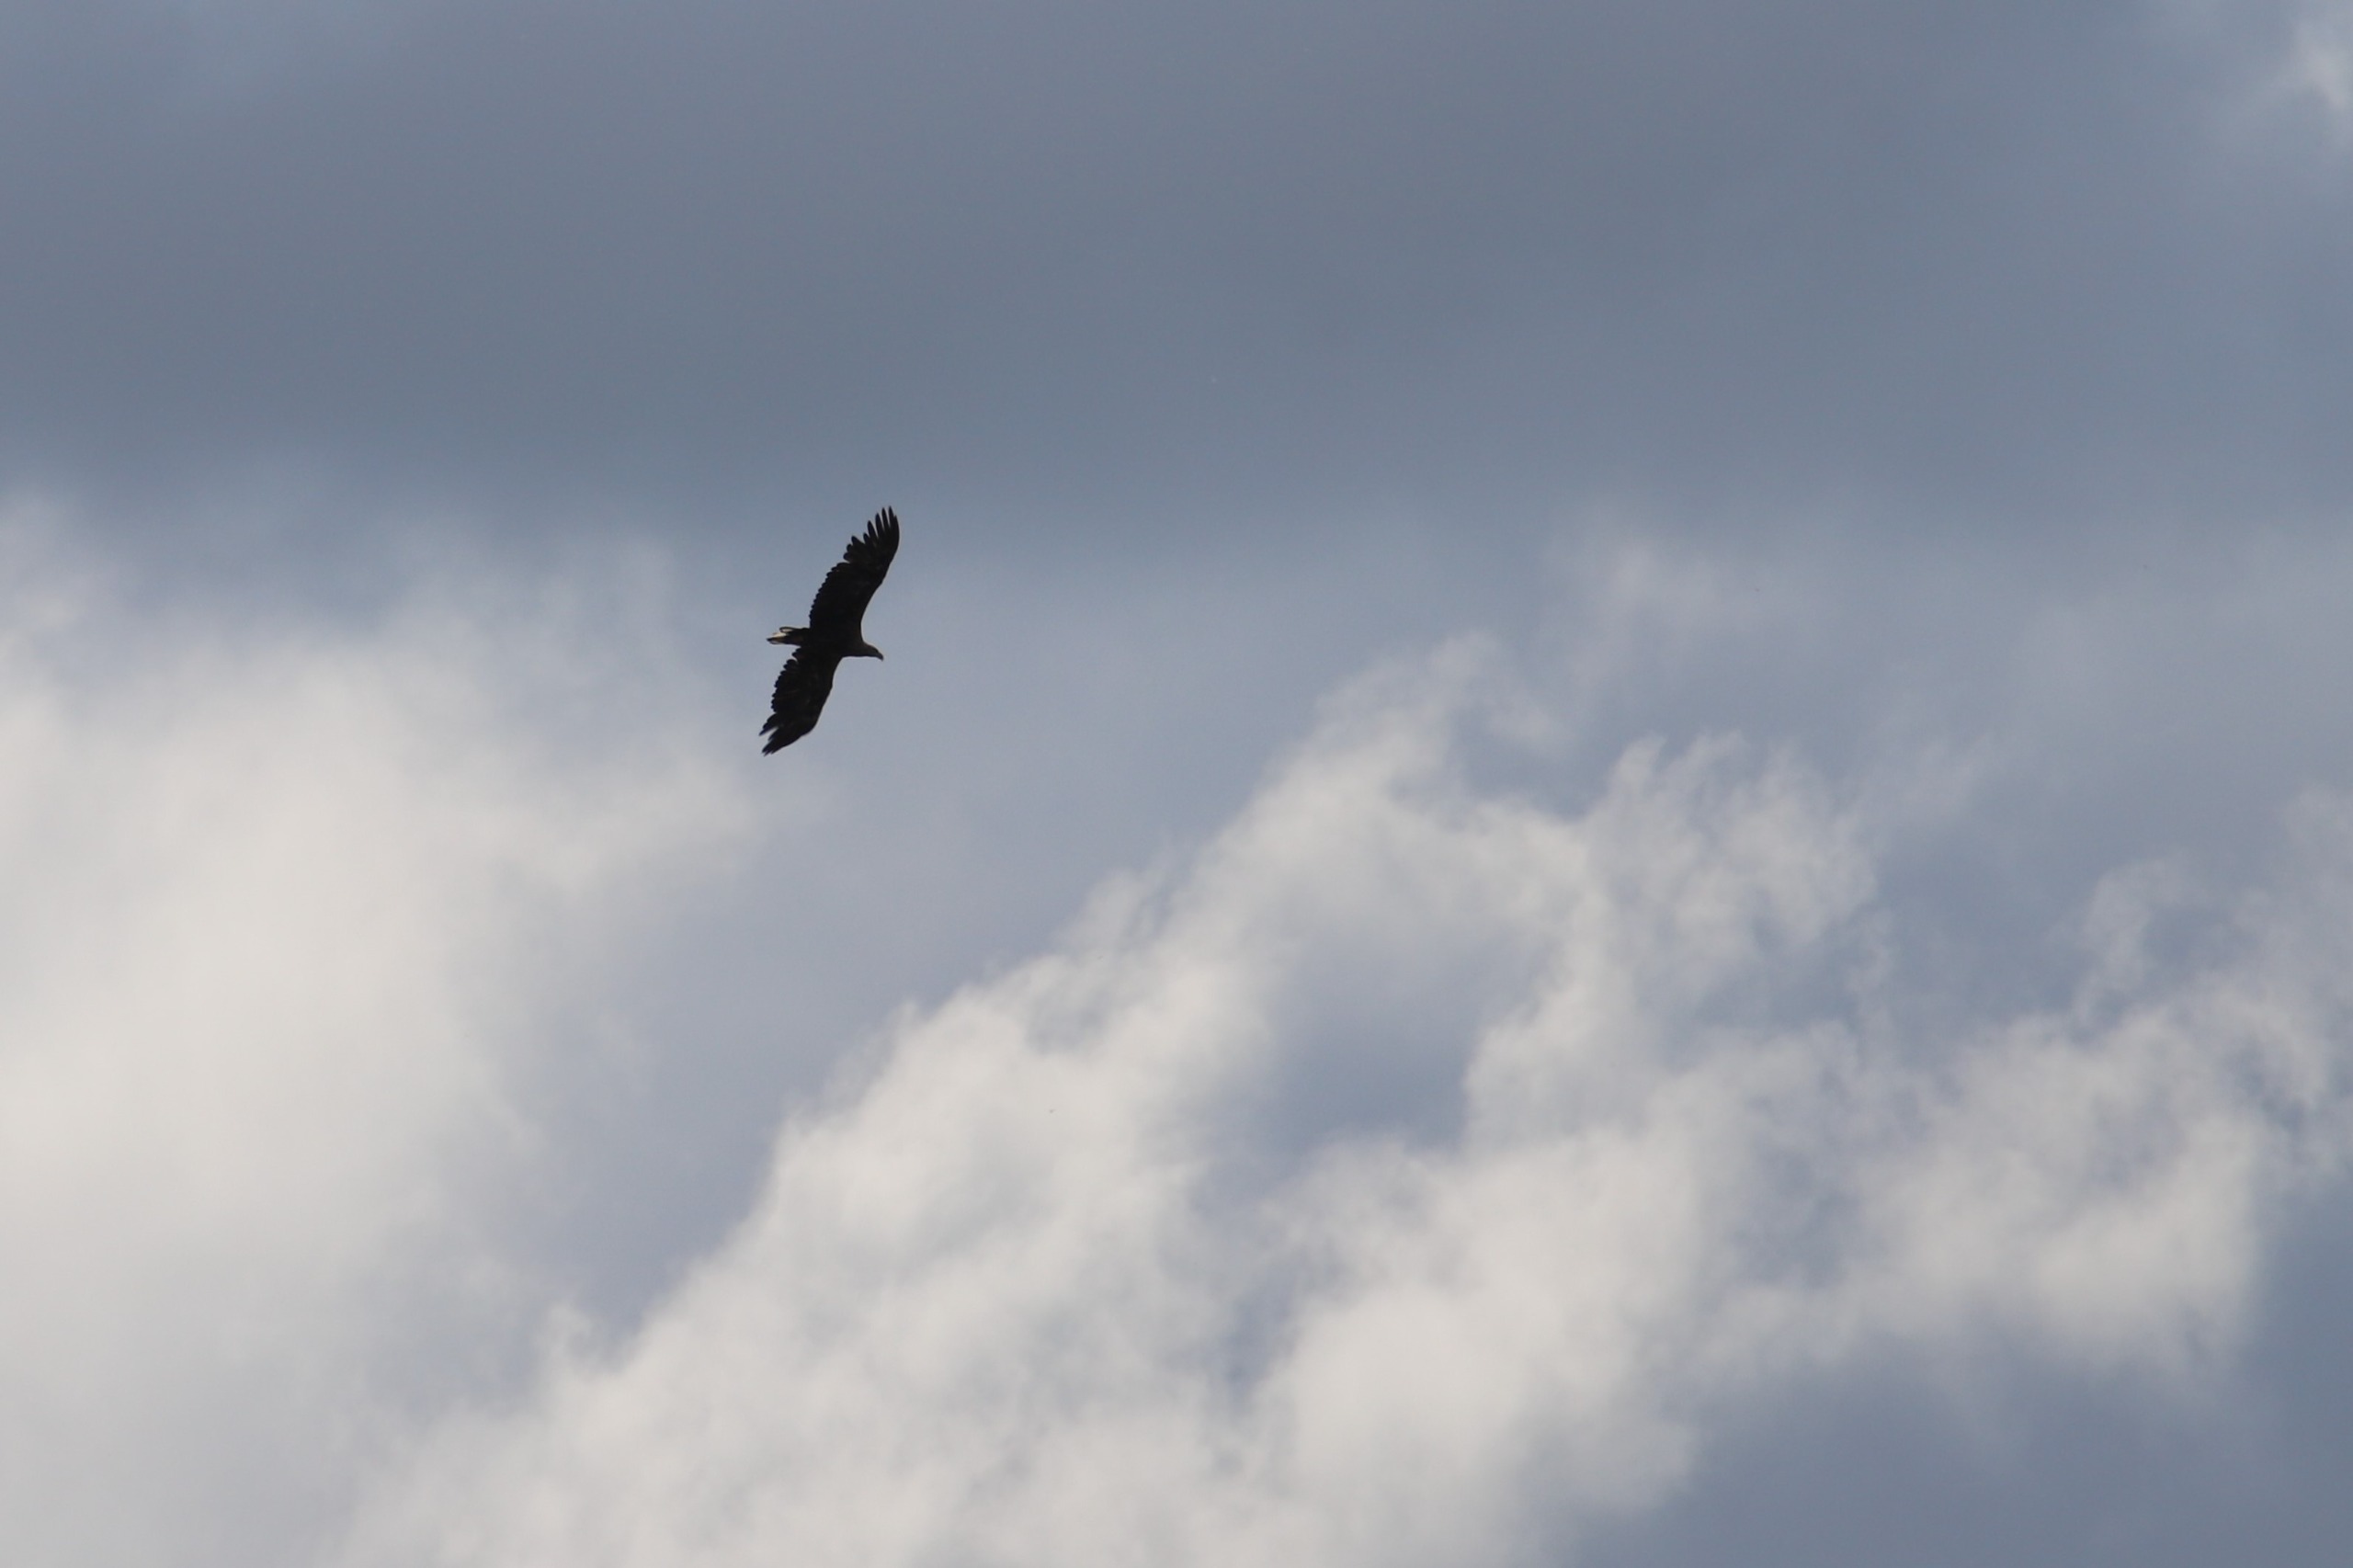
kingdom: Animalia
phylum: Chordata
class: Aves
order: Accipitriformes
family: Accipitridae
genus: Haliaeetus
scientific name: Haliaeetus albicilla
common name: Havørn
